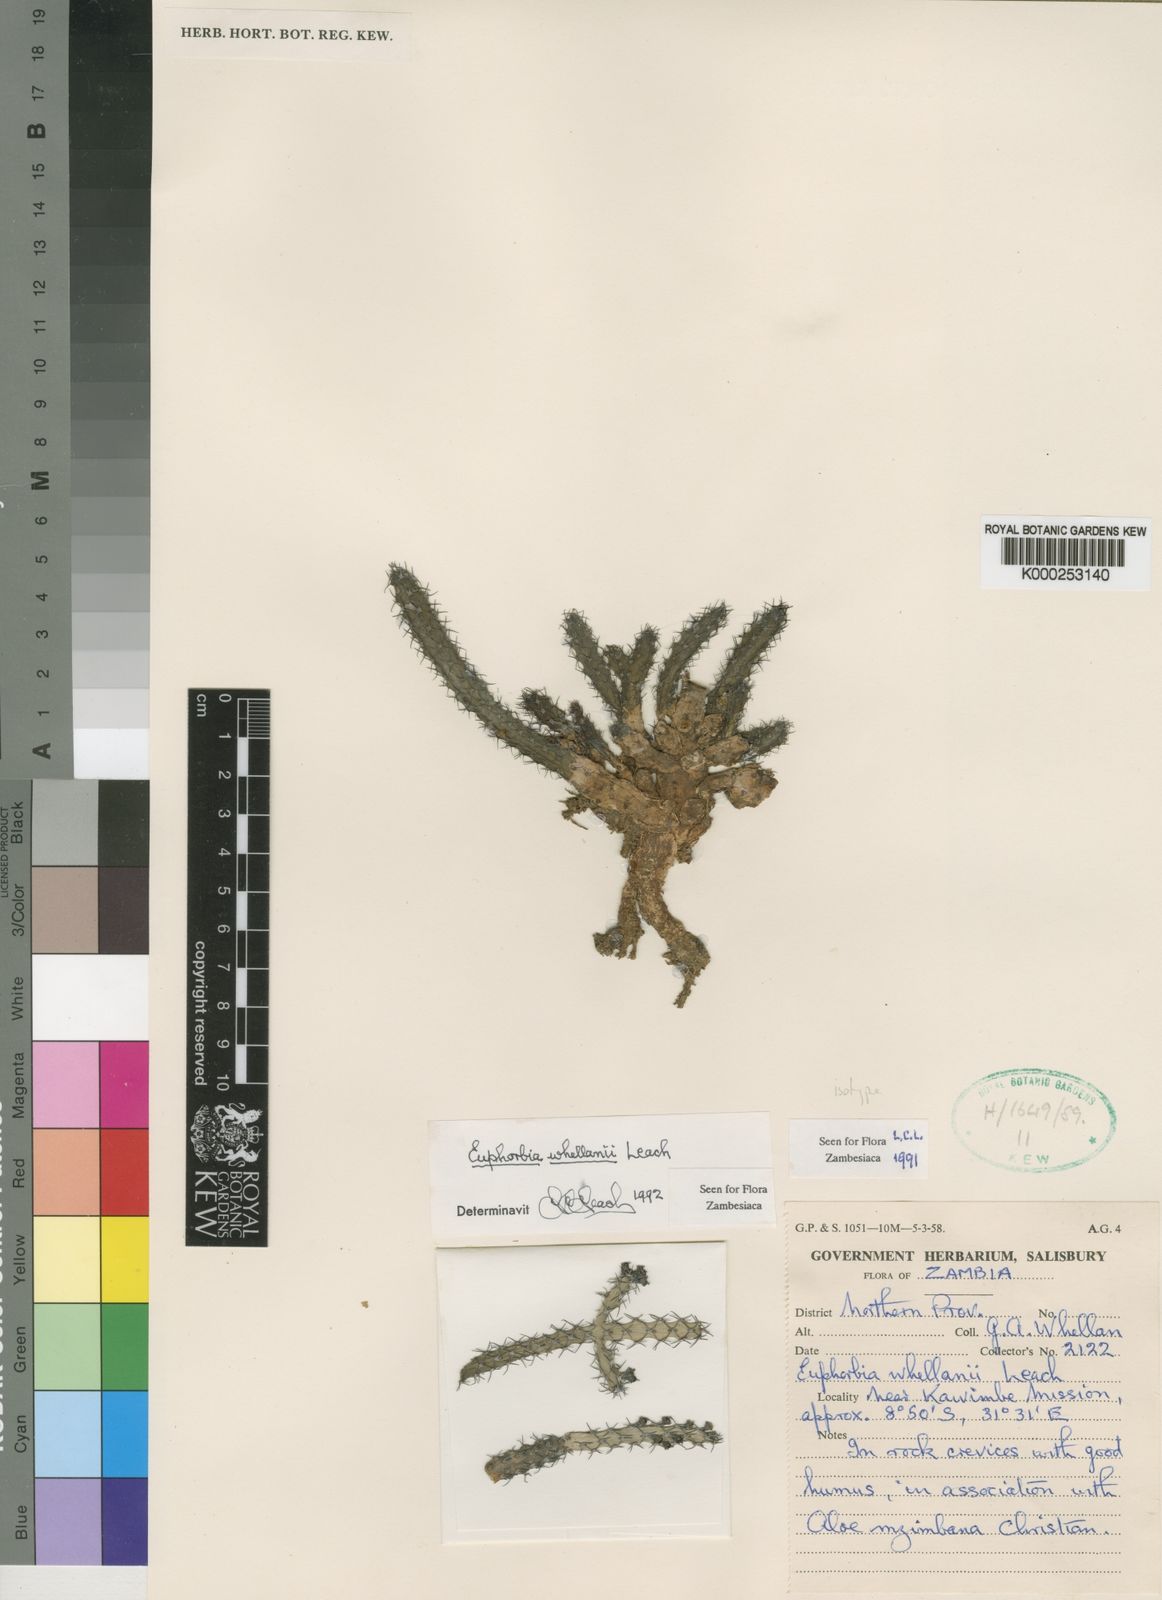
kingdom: Plantae
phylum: Tracheophyta
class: Magnoliopsida
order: Malpighiales
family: Euphorbiaceae
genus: Euphorbia
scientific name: Euphorbia whellanii
